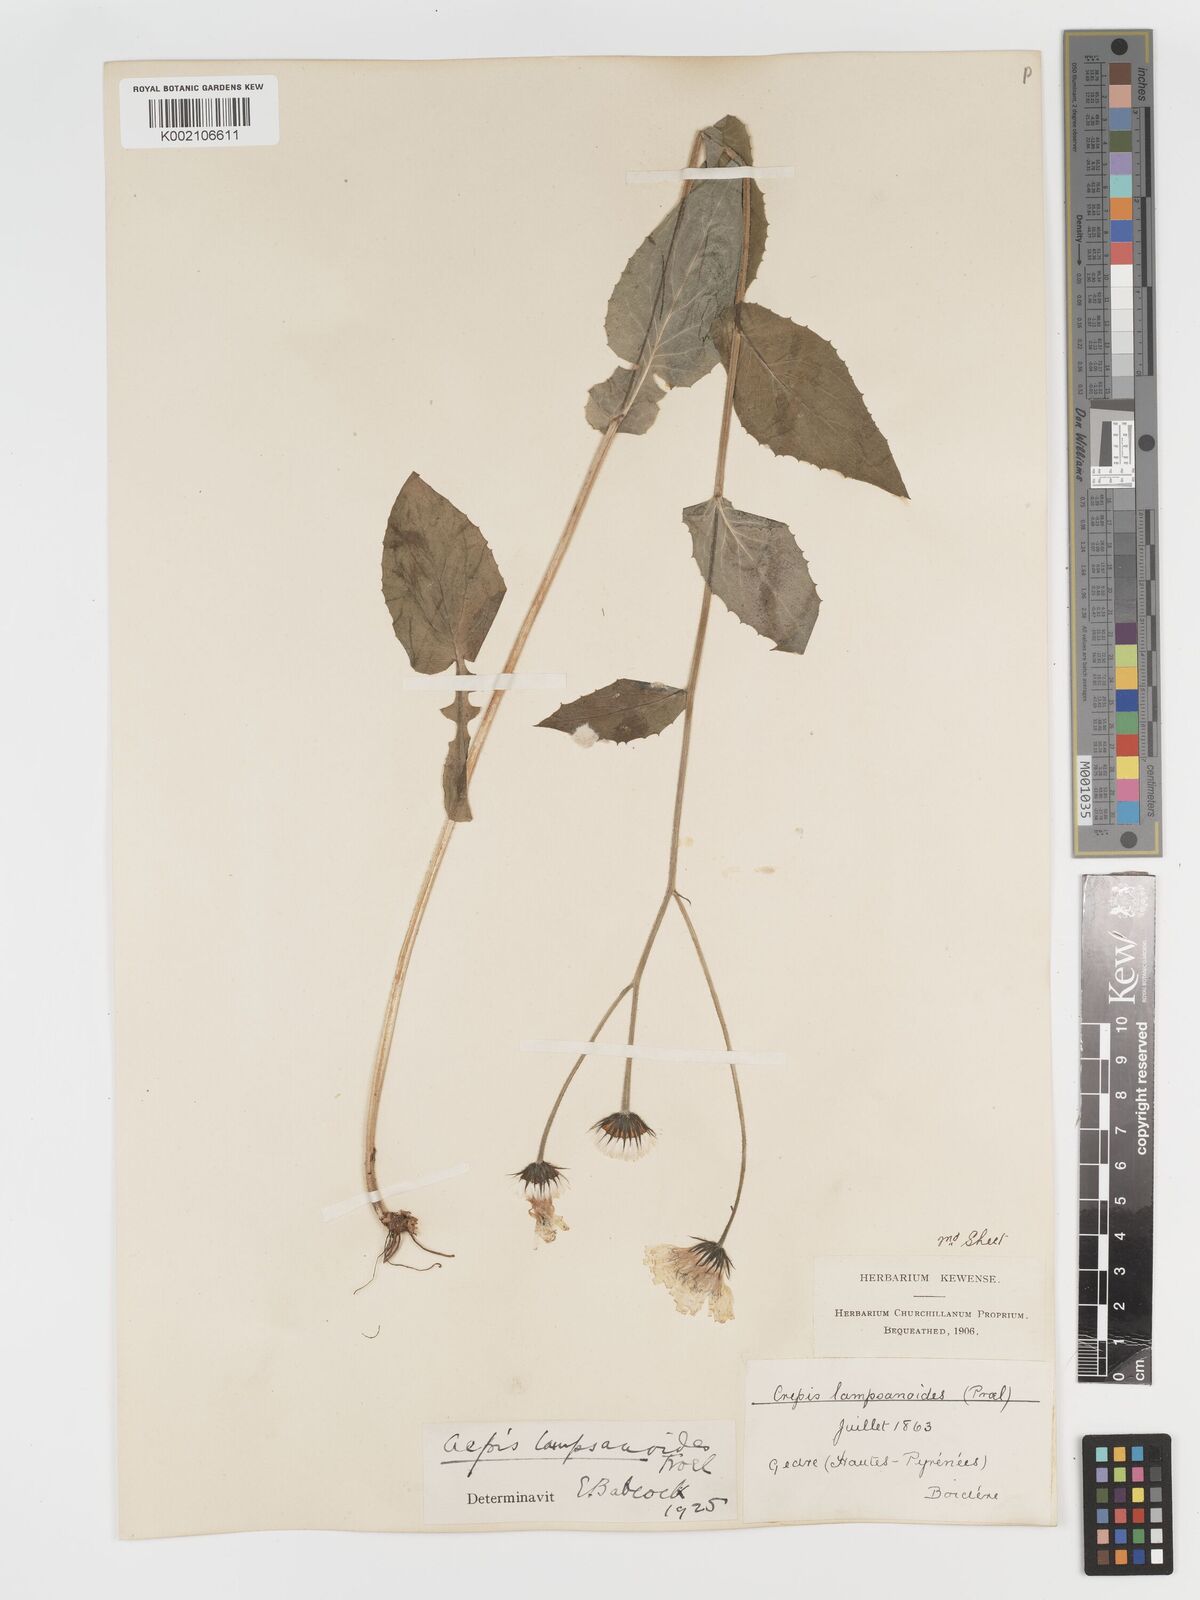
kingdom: Plantae
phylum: Tracheophyta
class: Magnoliopsida
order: Asterales
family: Asteraceae
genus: Crepis
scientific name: Crepis lampsanoides
